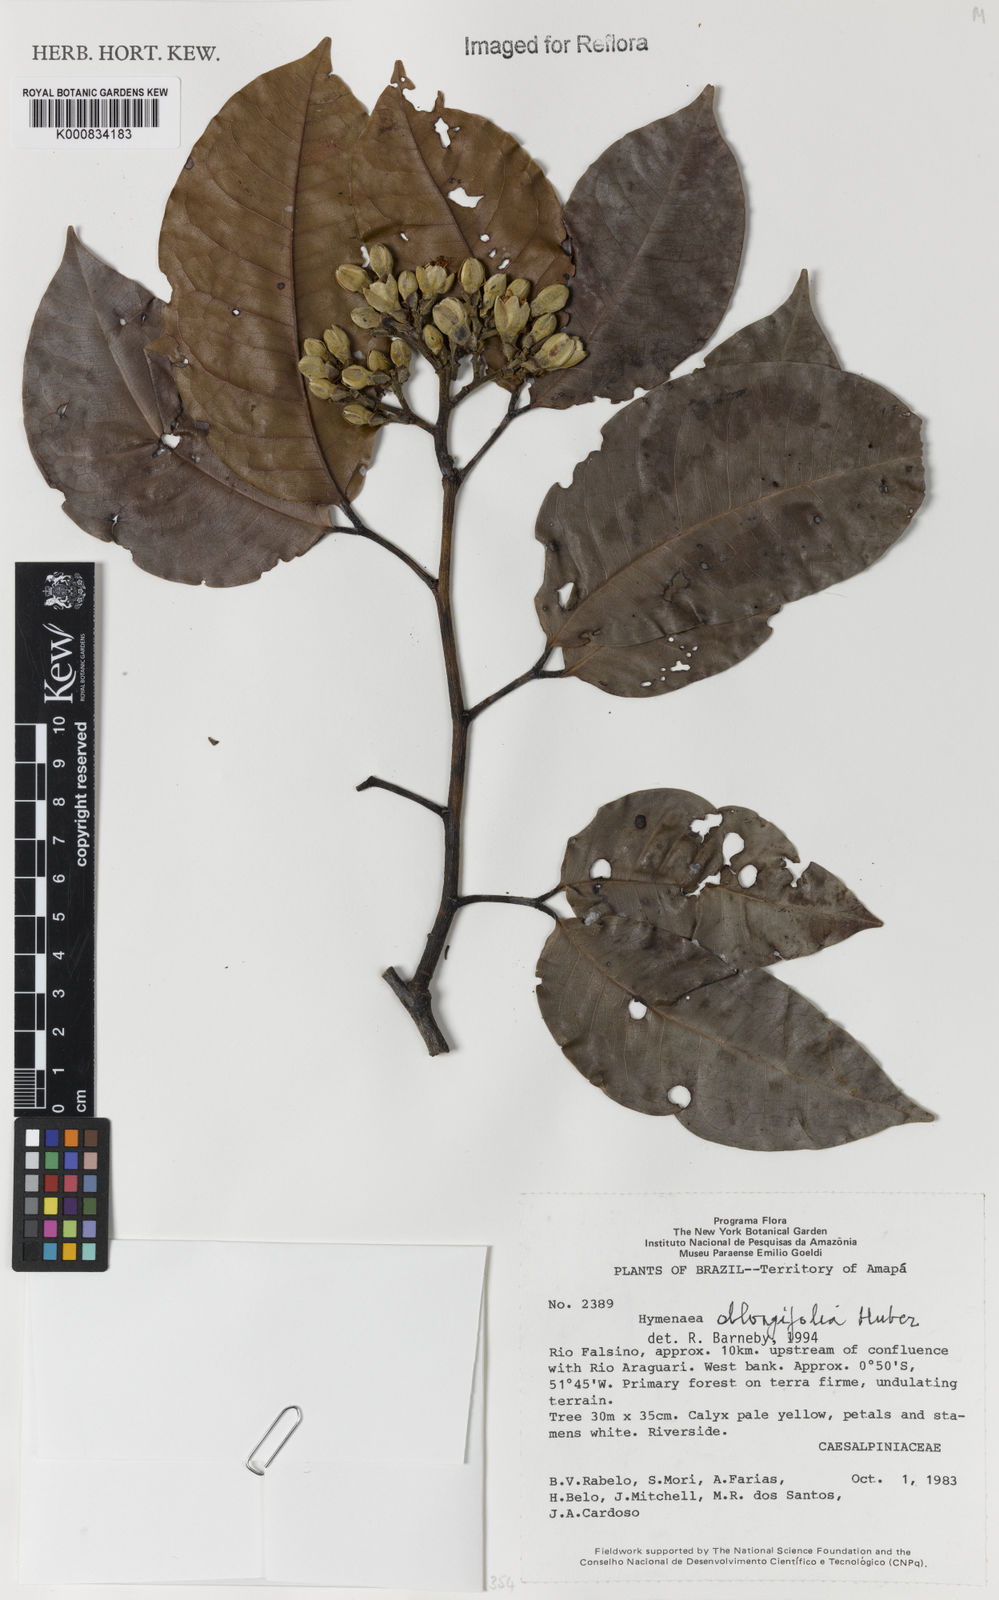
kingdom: Plantae
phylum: Tracheophyta
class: Magnoliopsida
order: Fabales
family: Fabaceae
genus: Hymenaea
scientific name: Hymenaea oblongifolia
